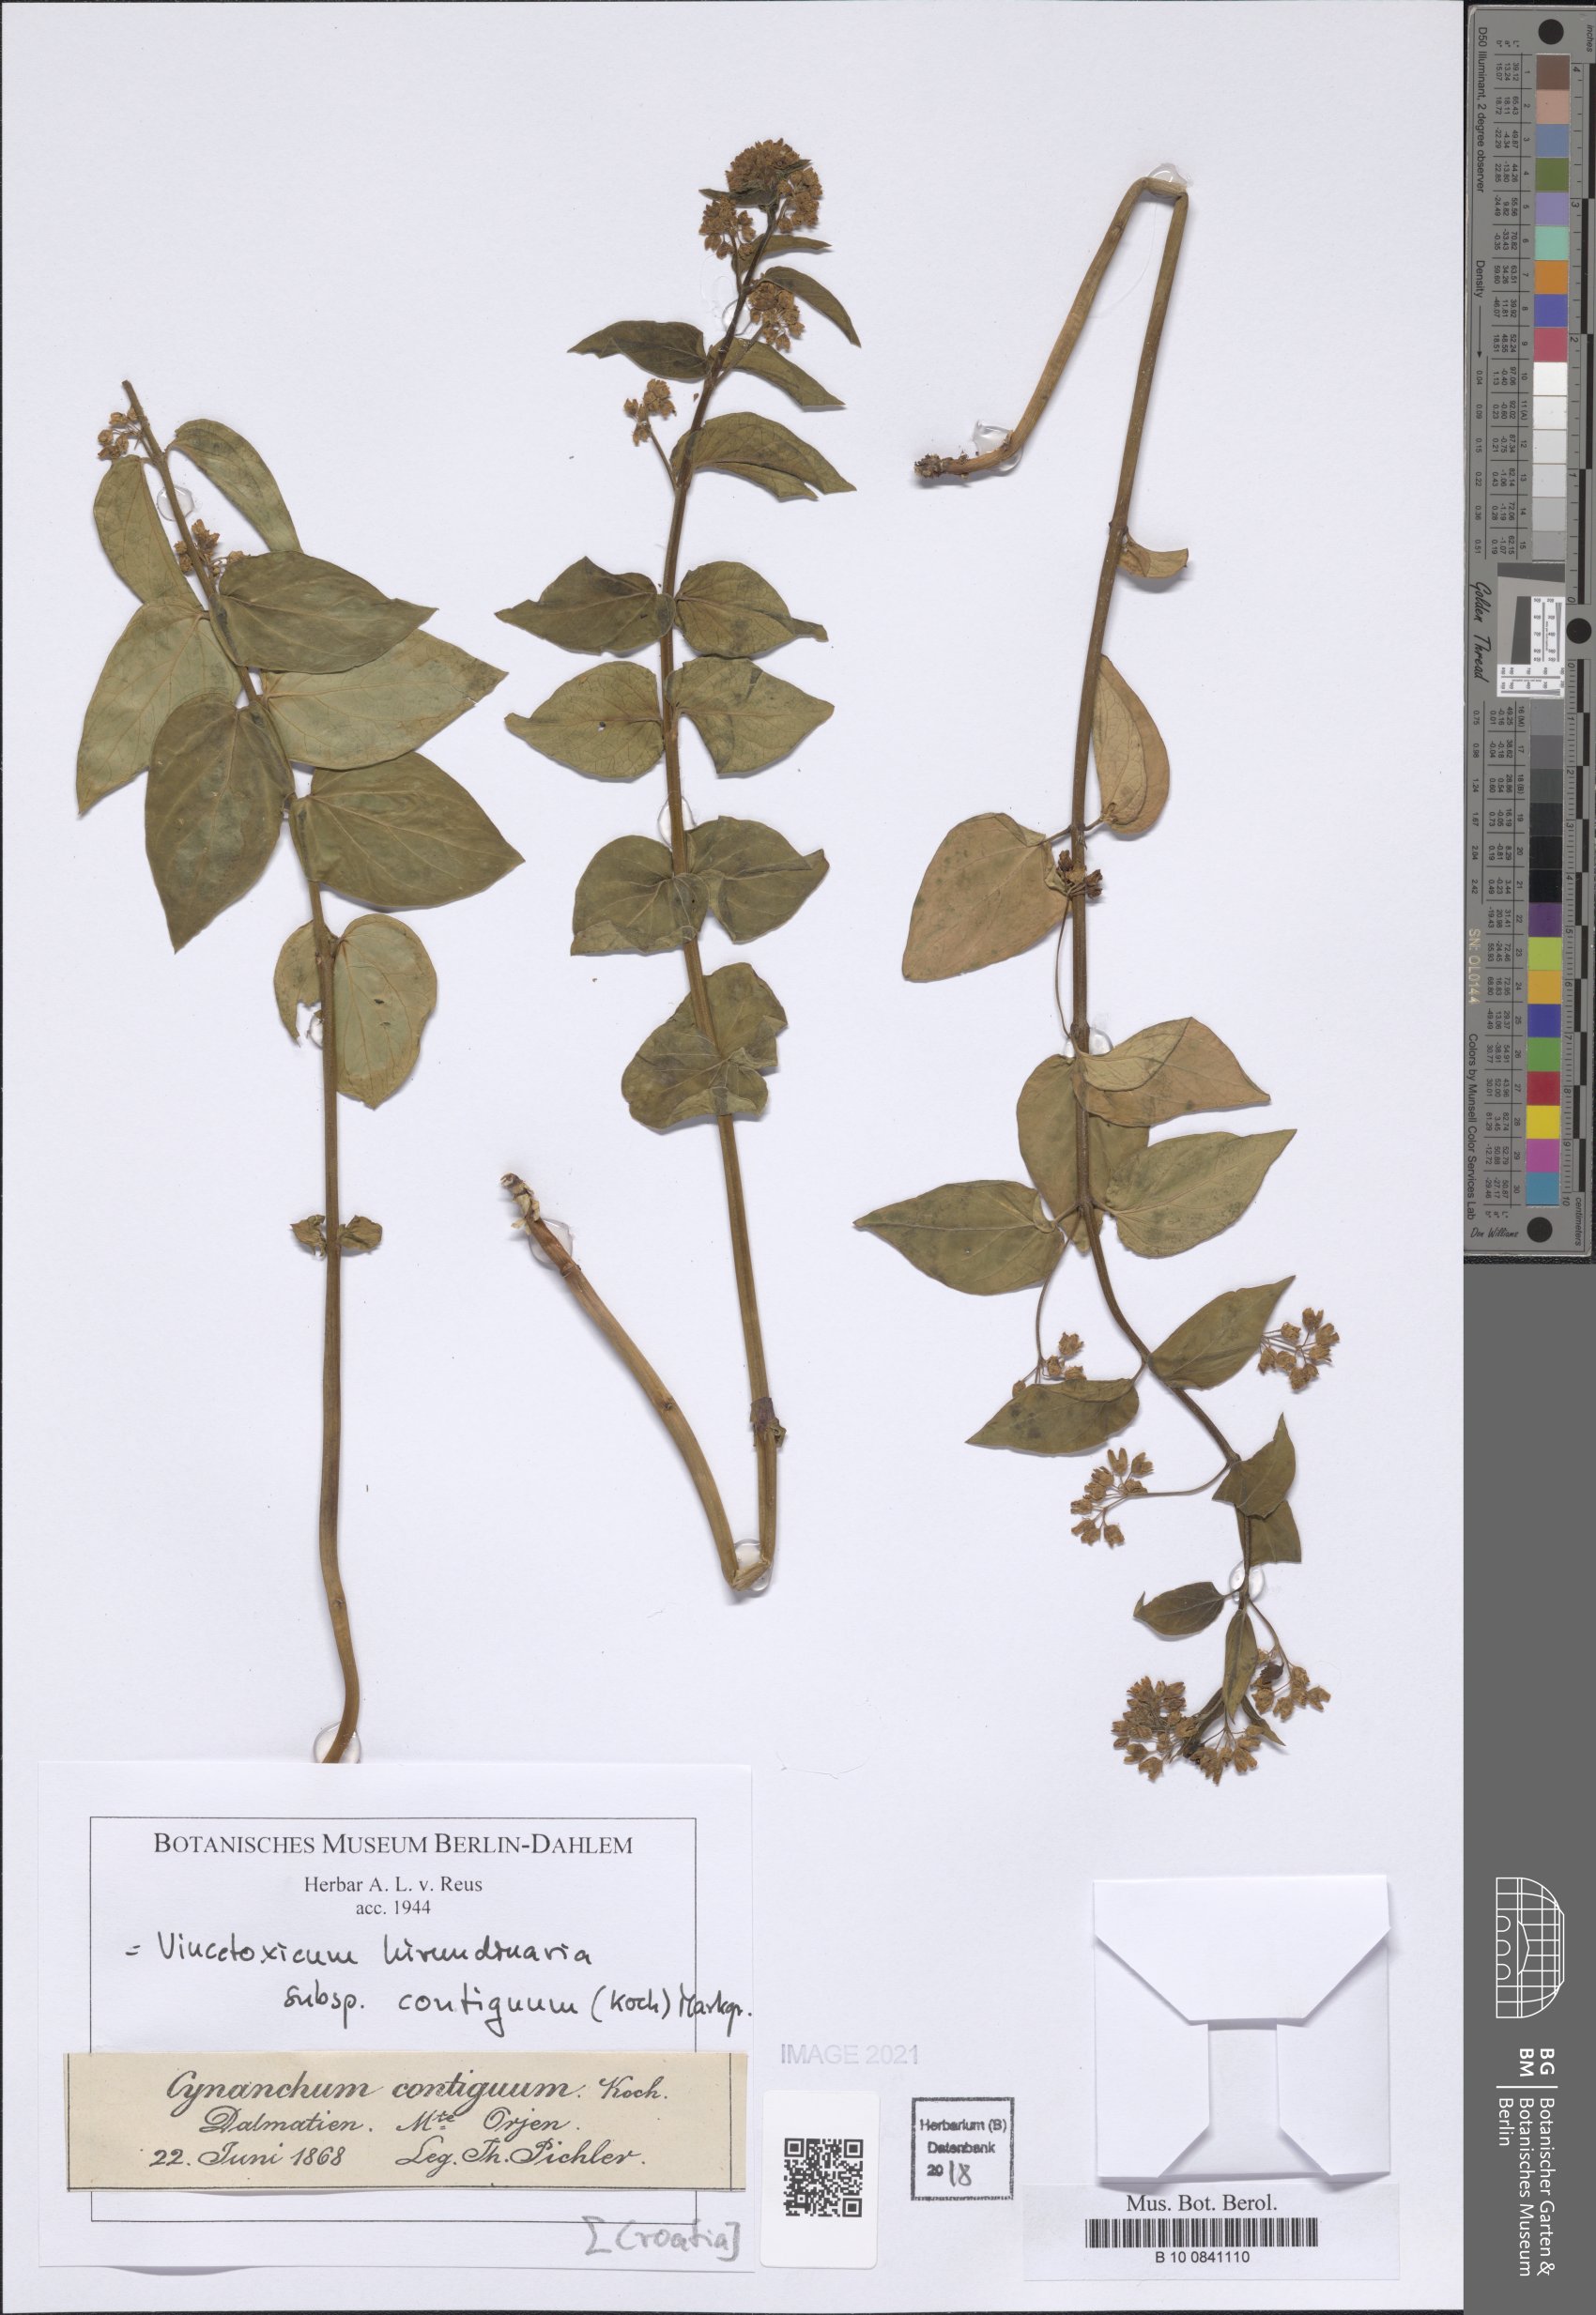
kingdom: Plantae
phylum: Tracheophyta
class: Magnoliopsida
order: Gentianales
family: Apocynaceae
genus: Vincetoxicum
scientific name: Vincetoxicum hirundinaria
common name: White swallowwort
